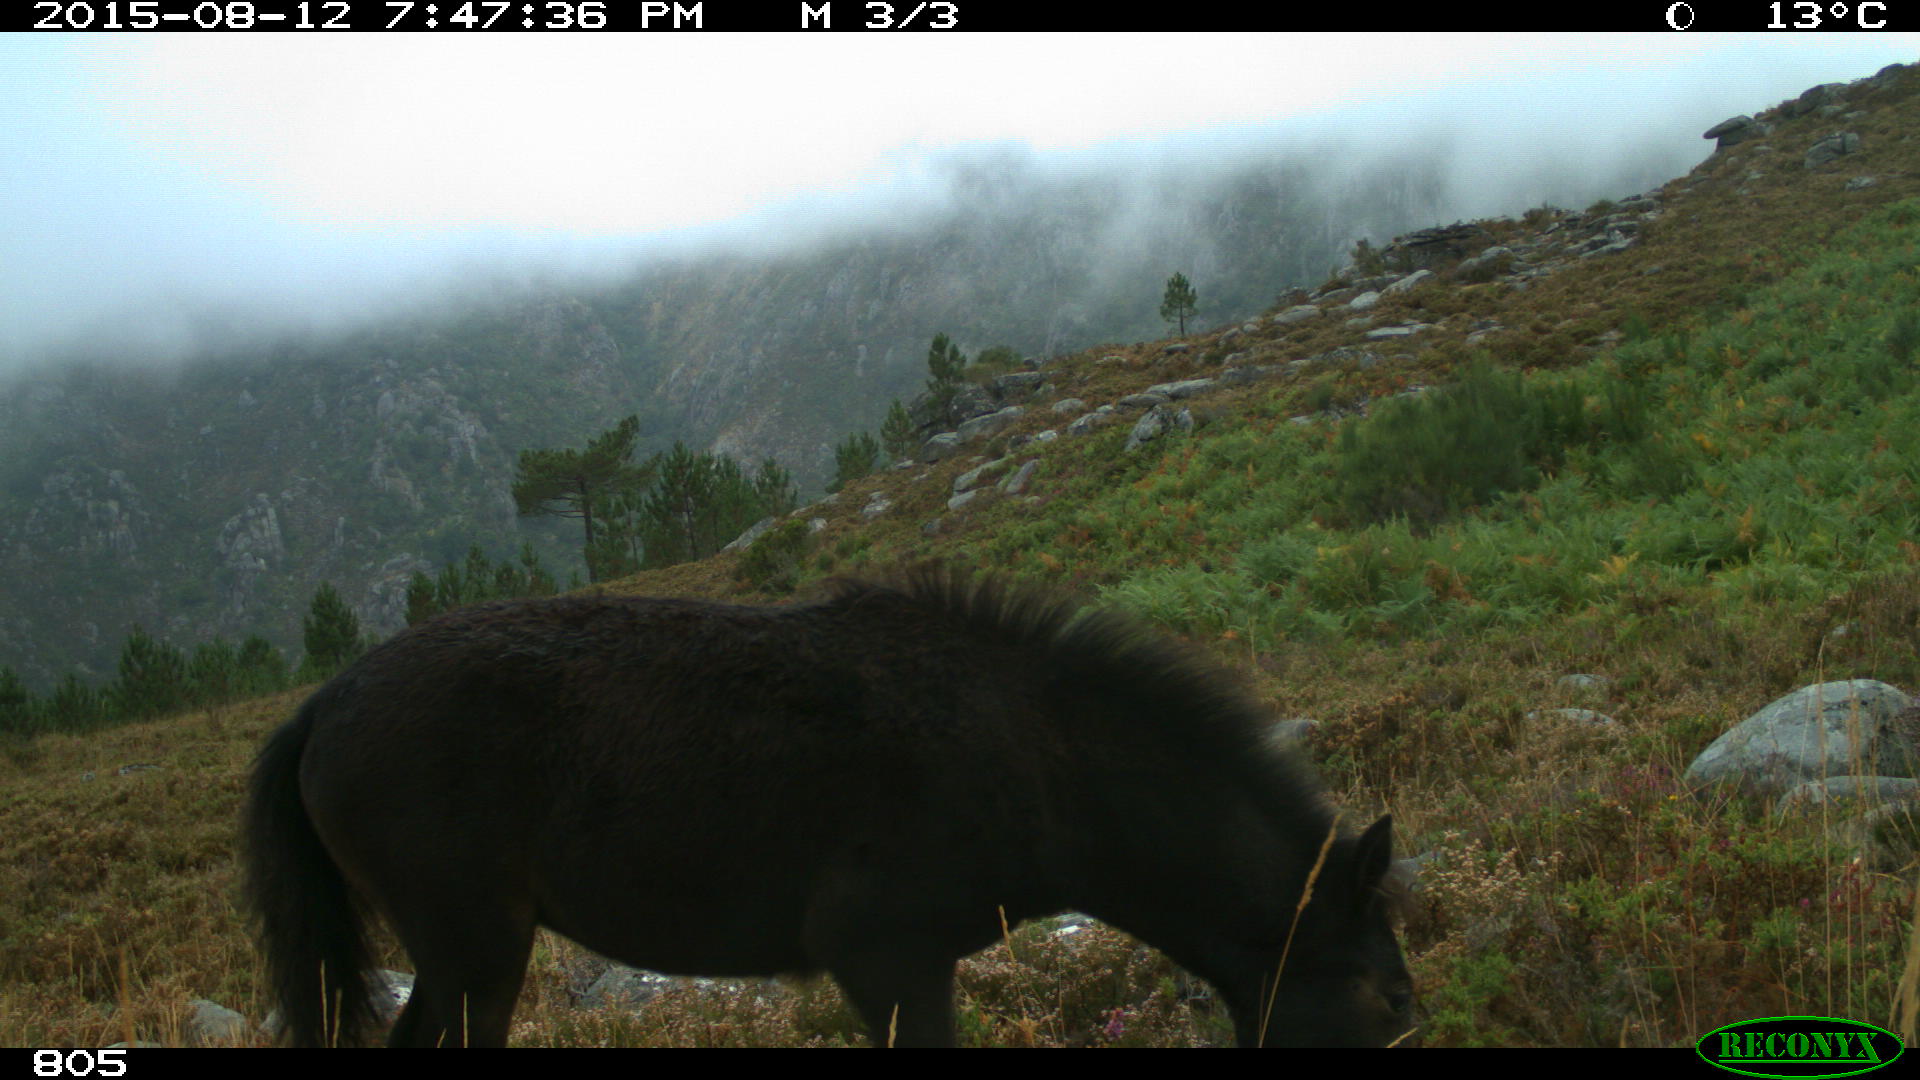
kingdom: Animalia
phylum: Chordata
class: Mammalia
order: Perissodactyla
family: Equidae
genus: Equus
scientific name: Equus caballus
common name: Horse
